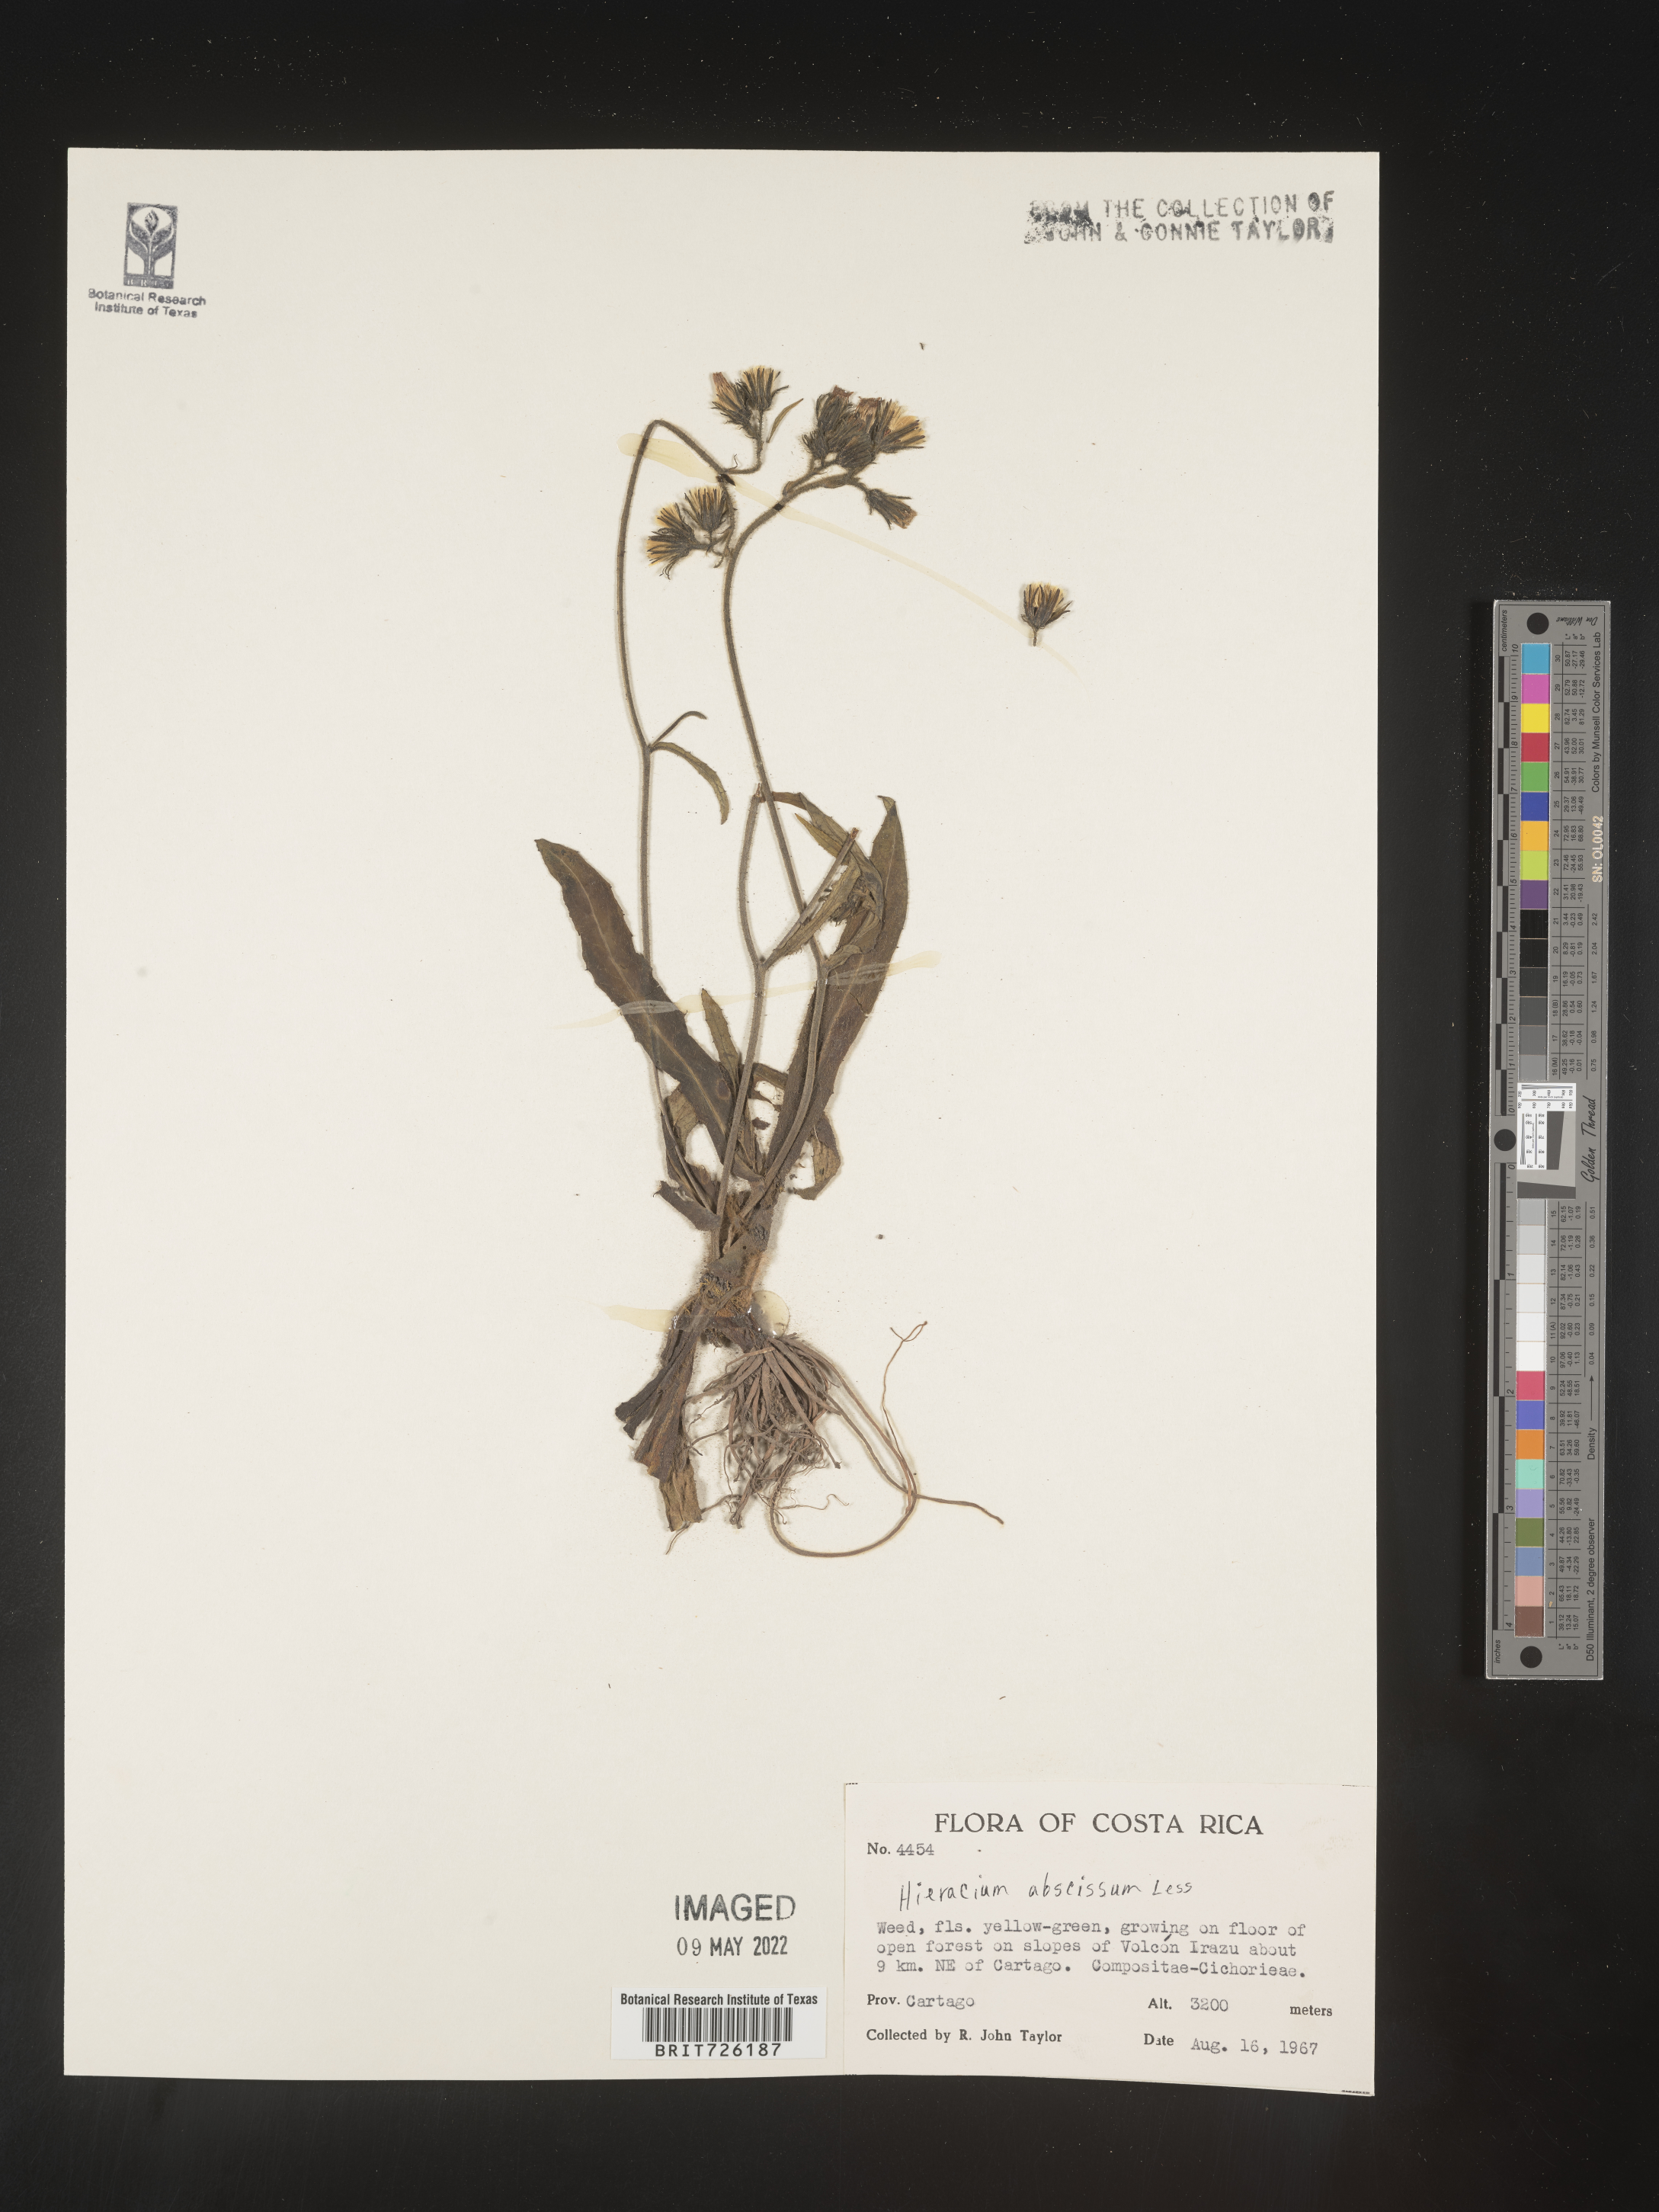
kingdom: Plantae
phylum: Tracheophyta
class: Magnoliopsida
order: Asterales
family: Asteraceae
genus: Hieracium
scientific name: Hieracium
